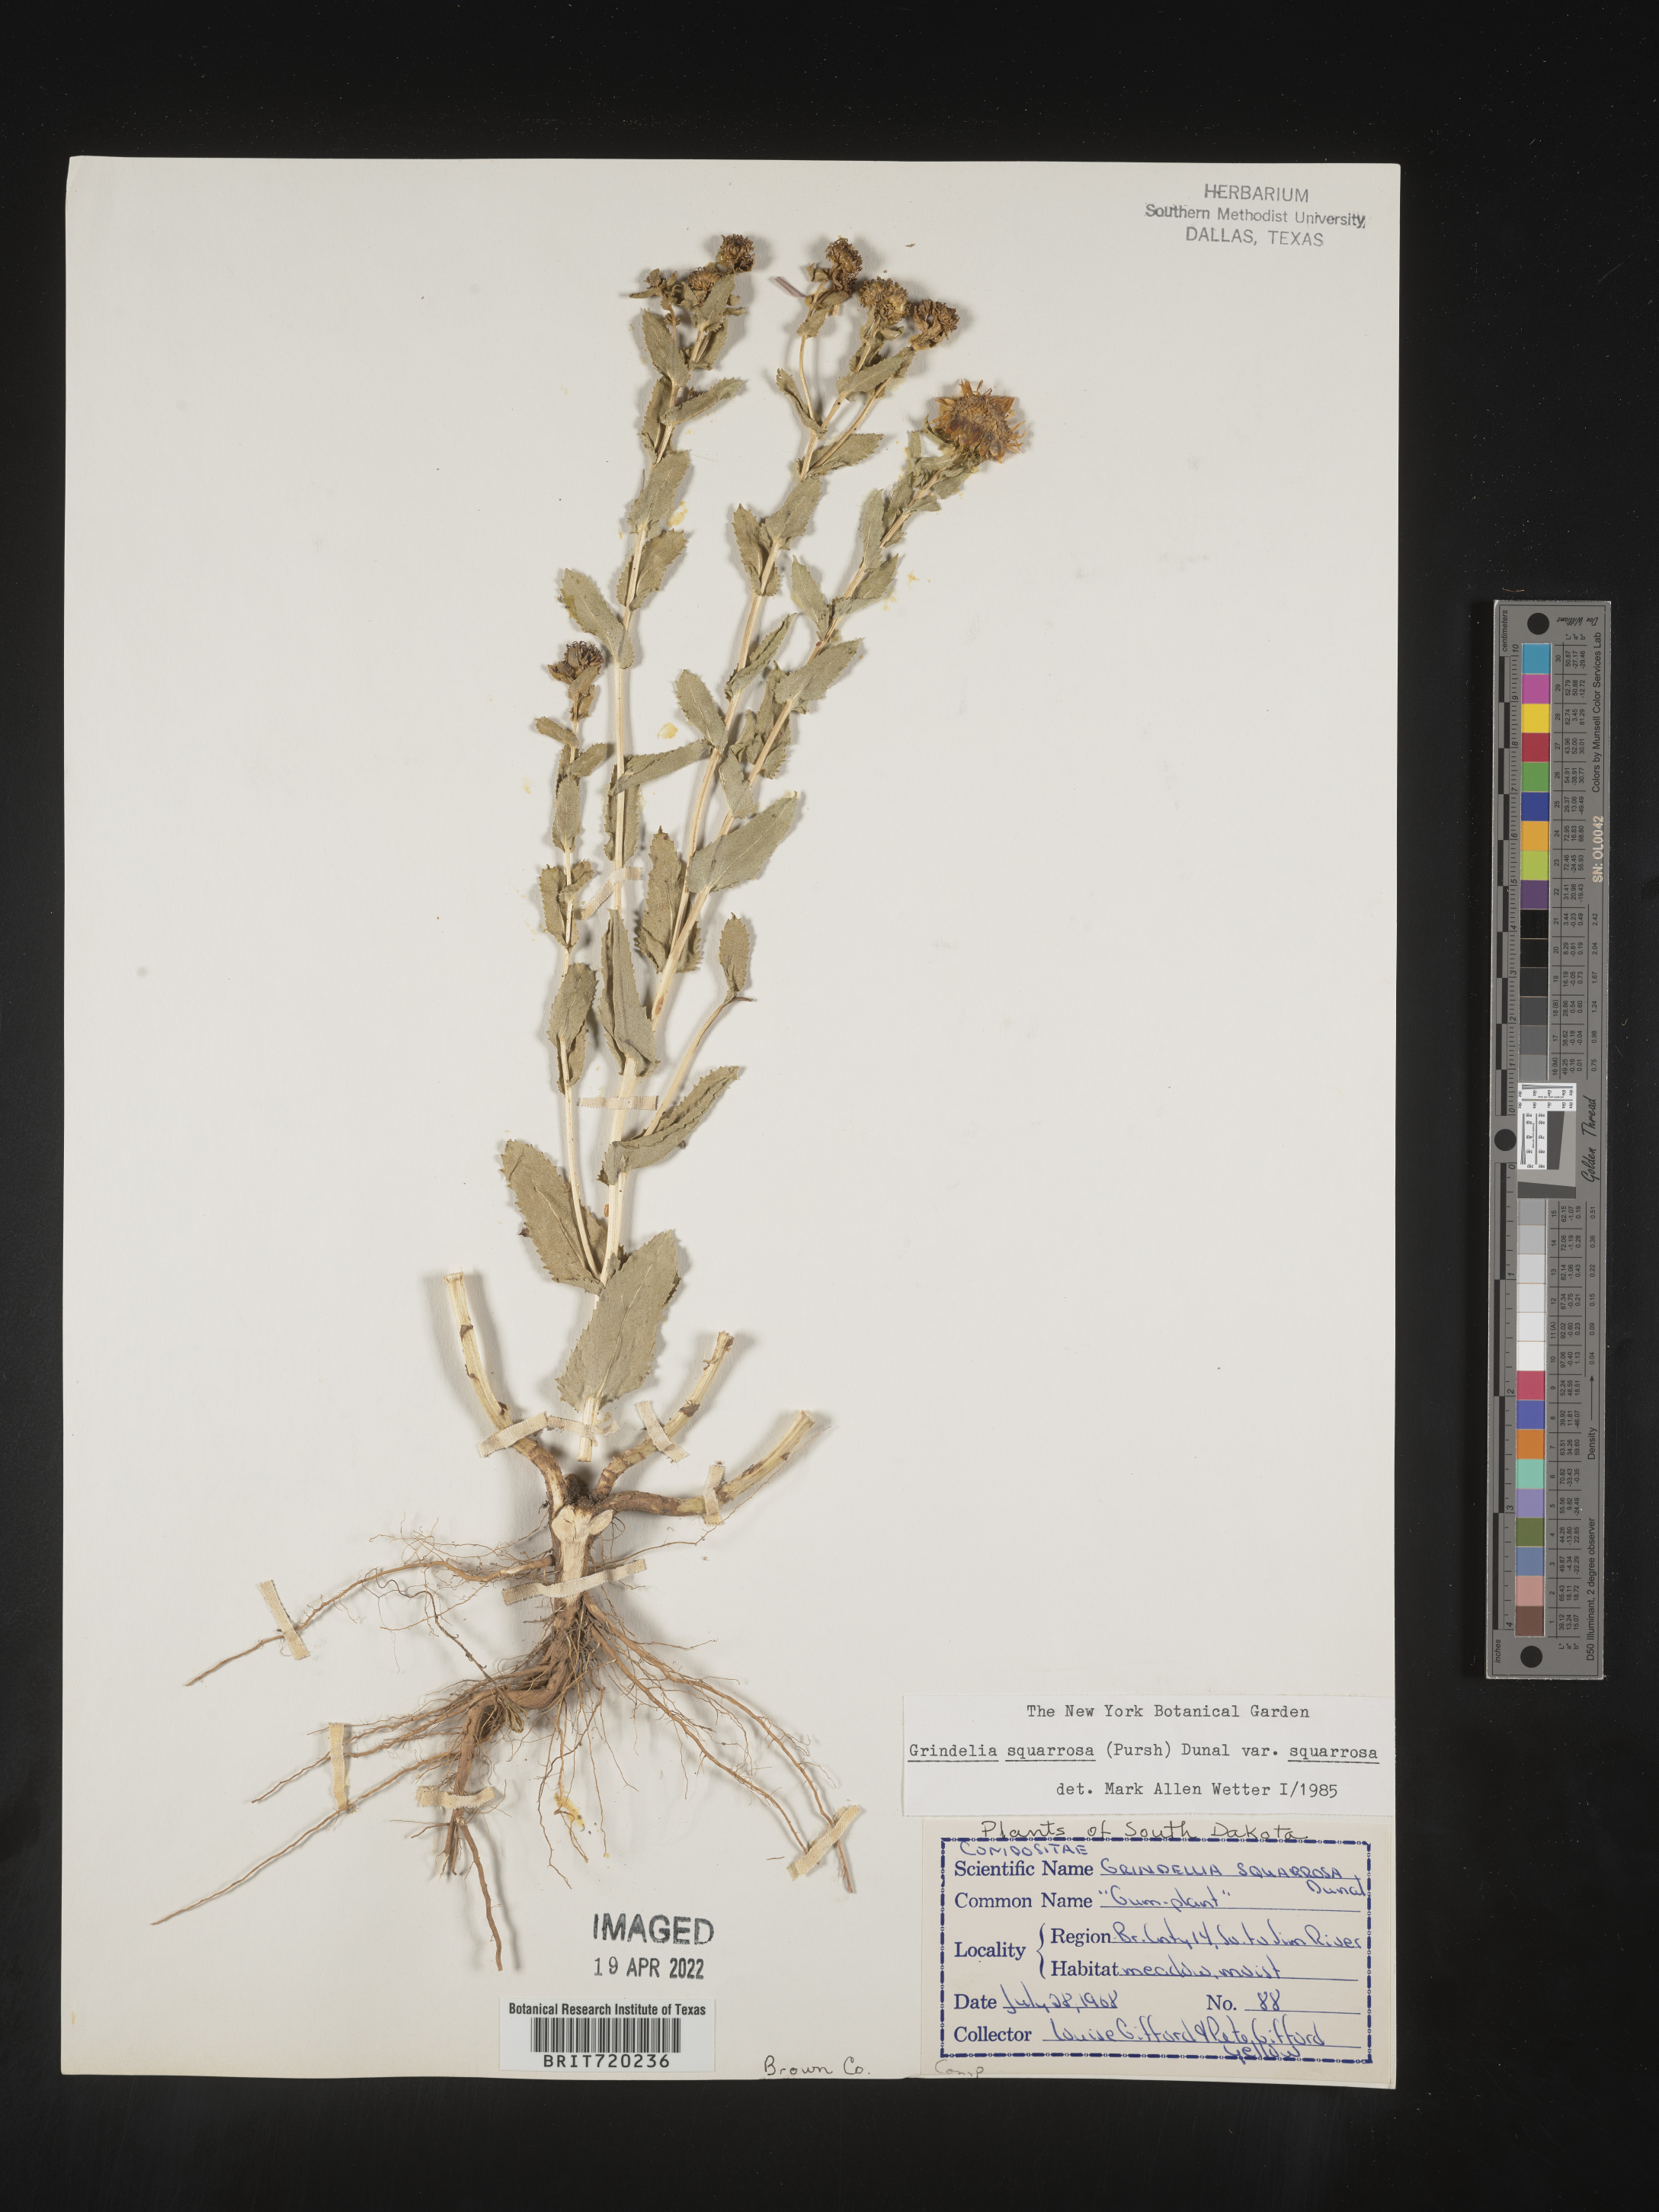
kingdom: Plantae
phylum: Tracheophyta
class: Magnoliopsida
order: Asterales
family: Asteraceae
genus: Grindelia
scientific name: Grindelia squarrosa
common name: Curly-cup gumweed
